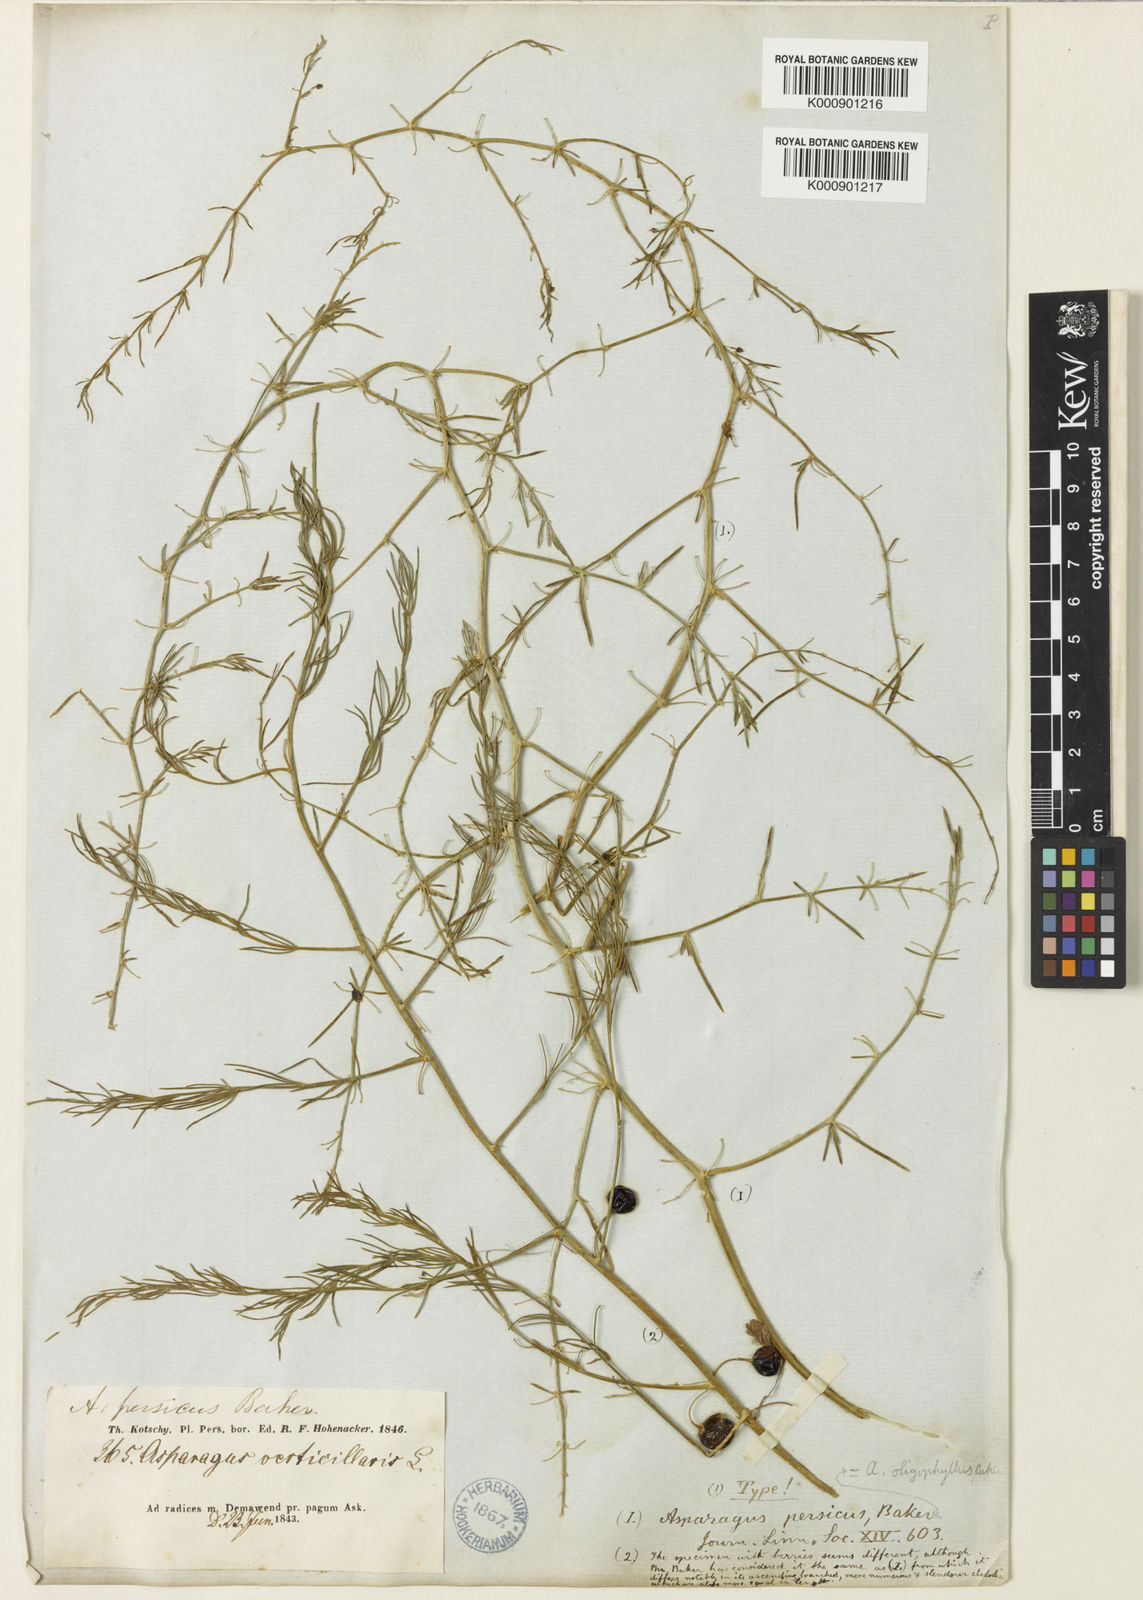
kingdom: Plantae
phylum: Tracheophyta
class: Liliopsida
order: Asparagales
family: Asparagaceae
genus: Asparagus
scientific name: Asparagus persicus
